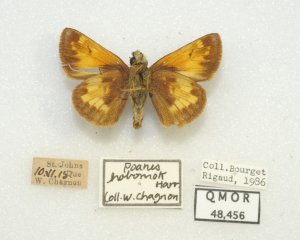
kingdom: Animalia
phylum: Arthropoda
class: Insecta
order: Lepidoptera
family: Hesperiidae
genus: Lon
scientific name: Lon hobomok
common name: Hobomok Skipper
